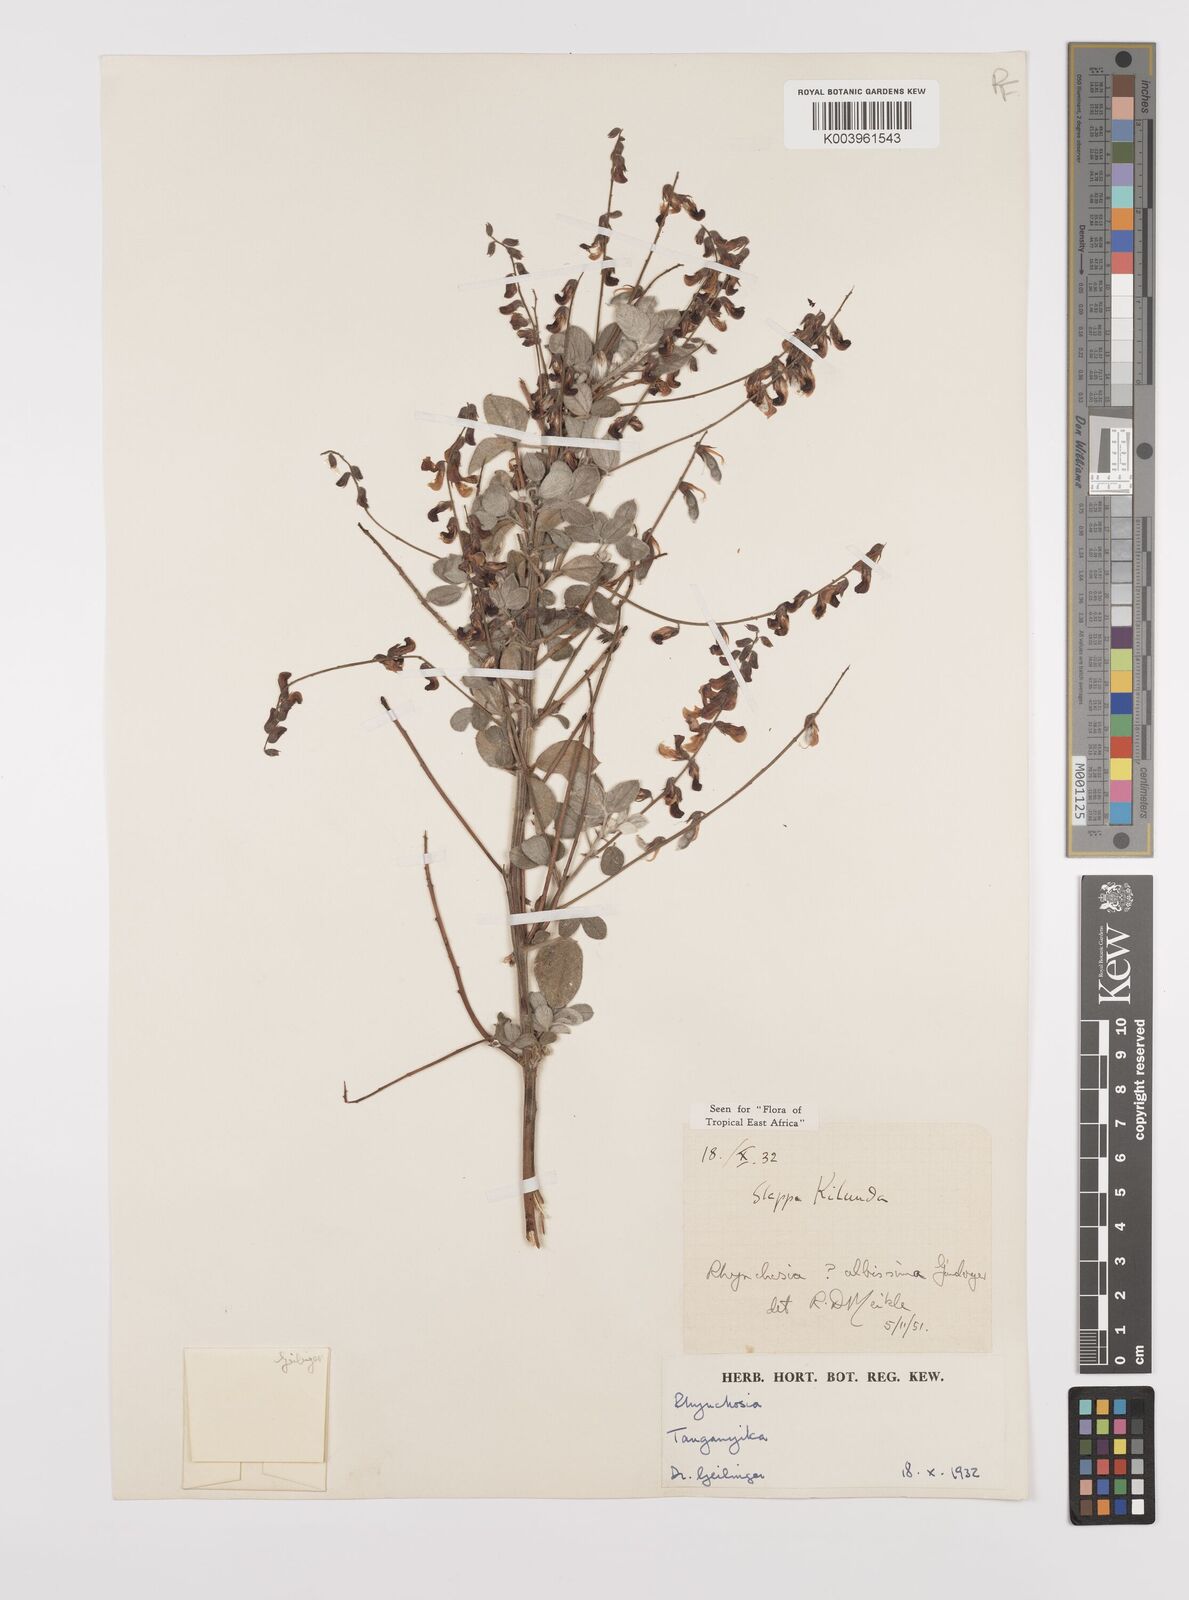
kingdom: Plantae
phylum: Tracheophyta
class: Magnoliopsida
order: Fabales
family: Fabaceae
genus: Rhynchosia
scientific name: Rhynchosia albissima
